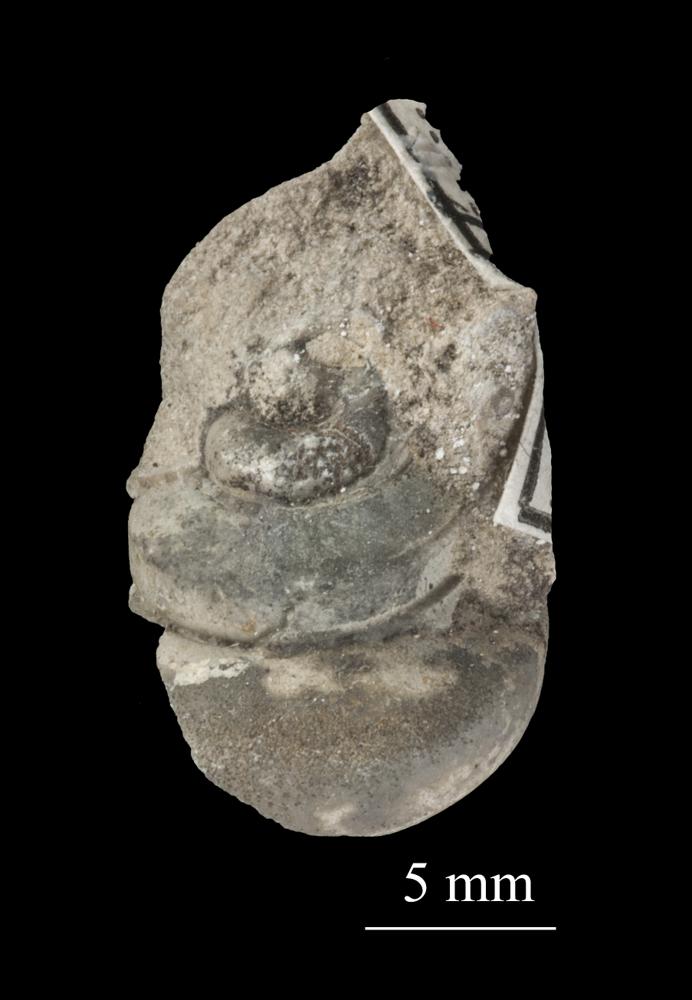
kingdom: Animalia
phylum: Mollusca
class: Gastropoda
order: Neogastropoda
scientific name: Neogastropoda
